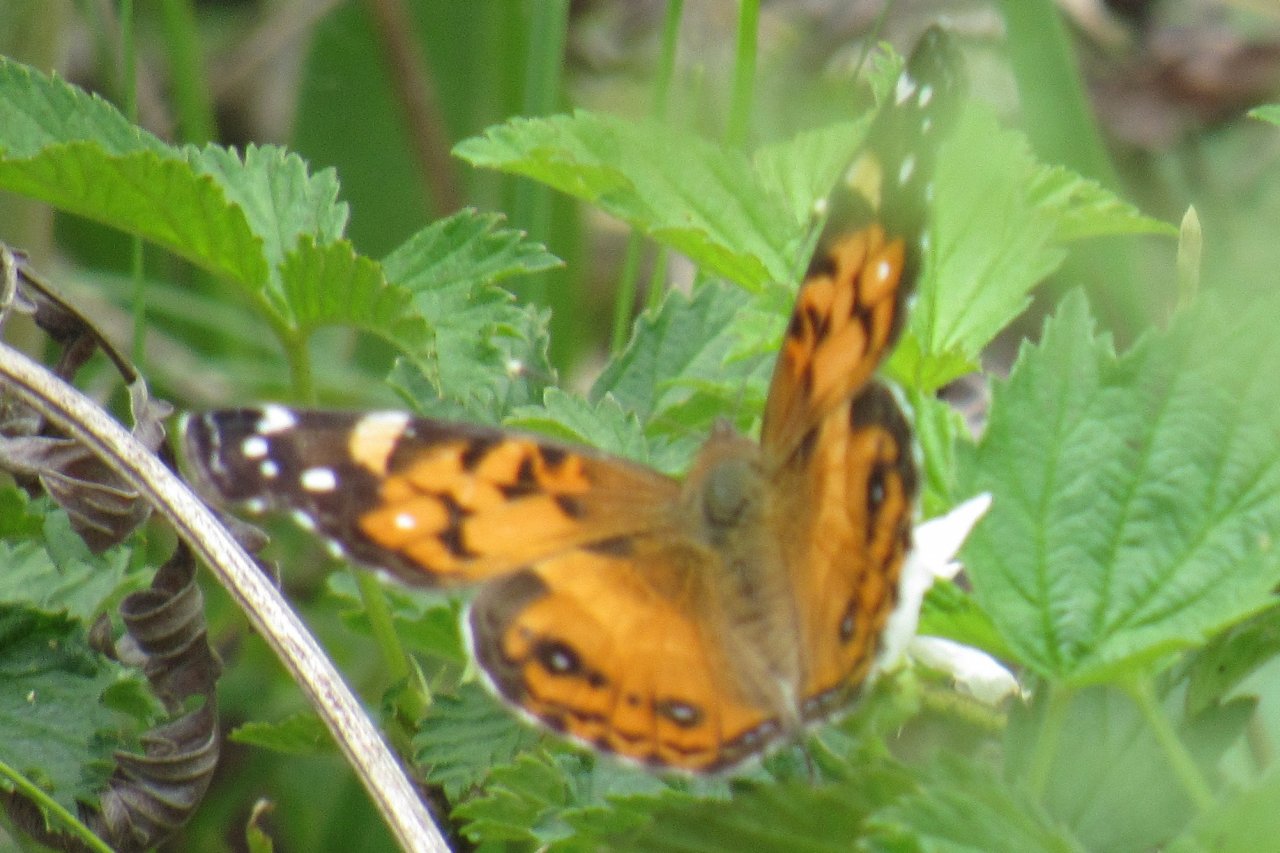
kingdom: Animalia
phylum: Arthropoda
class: Insecta
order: Lepidoptera
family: Nymphalidae
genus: Vanessa
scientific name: Vanessa virginiensis
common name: American Lady
